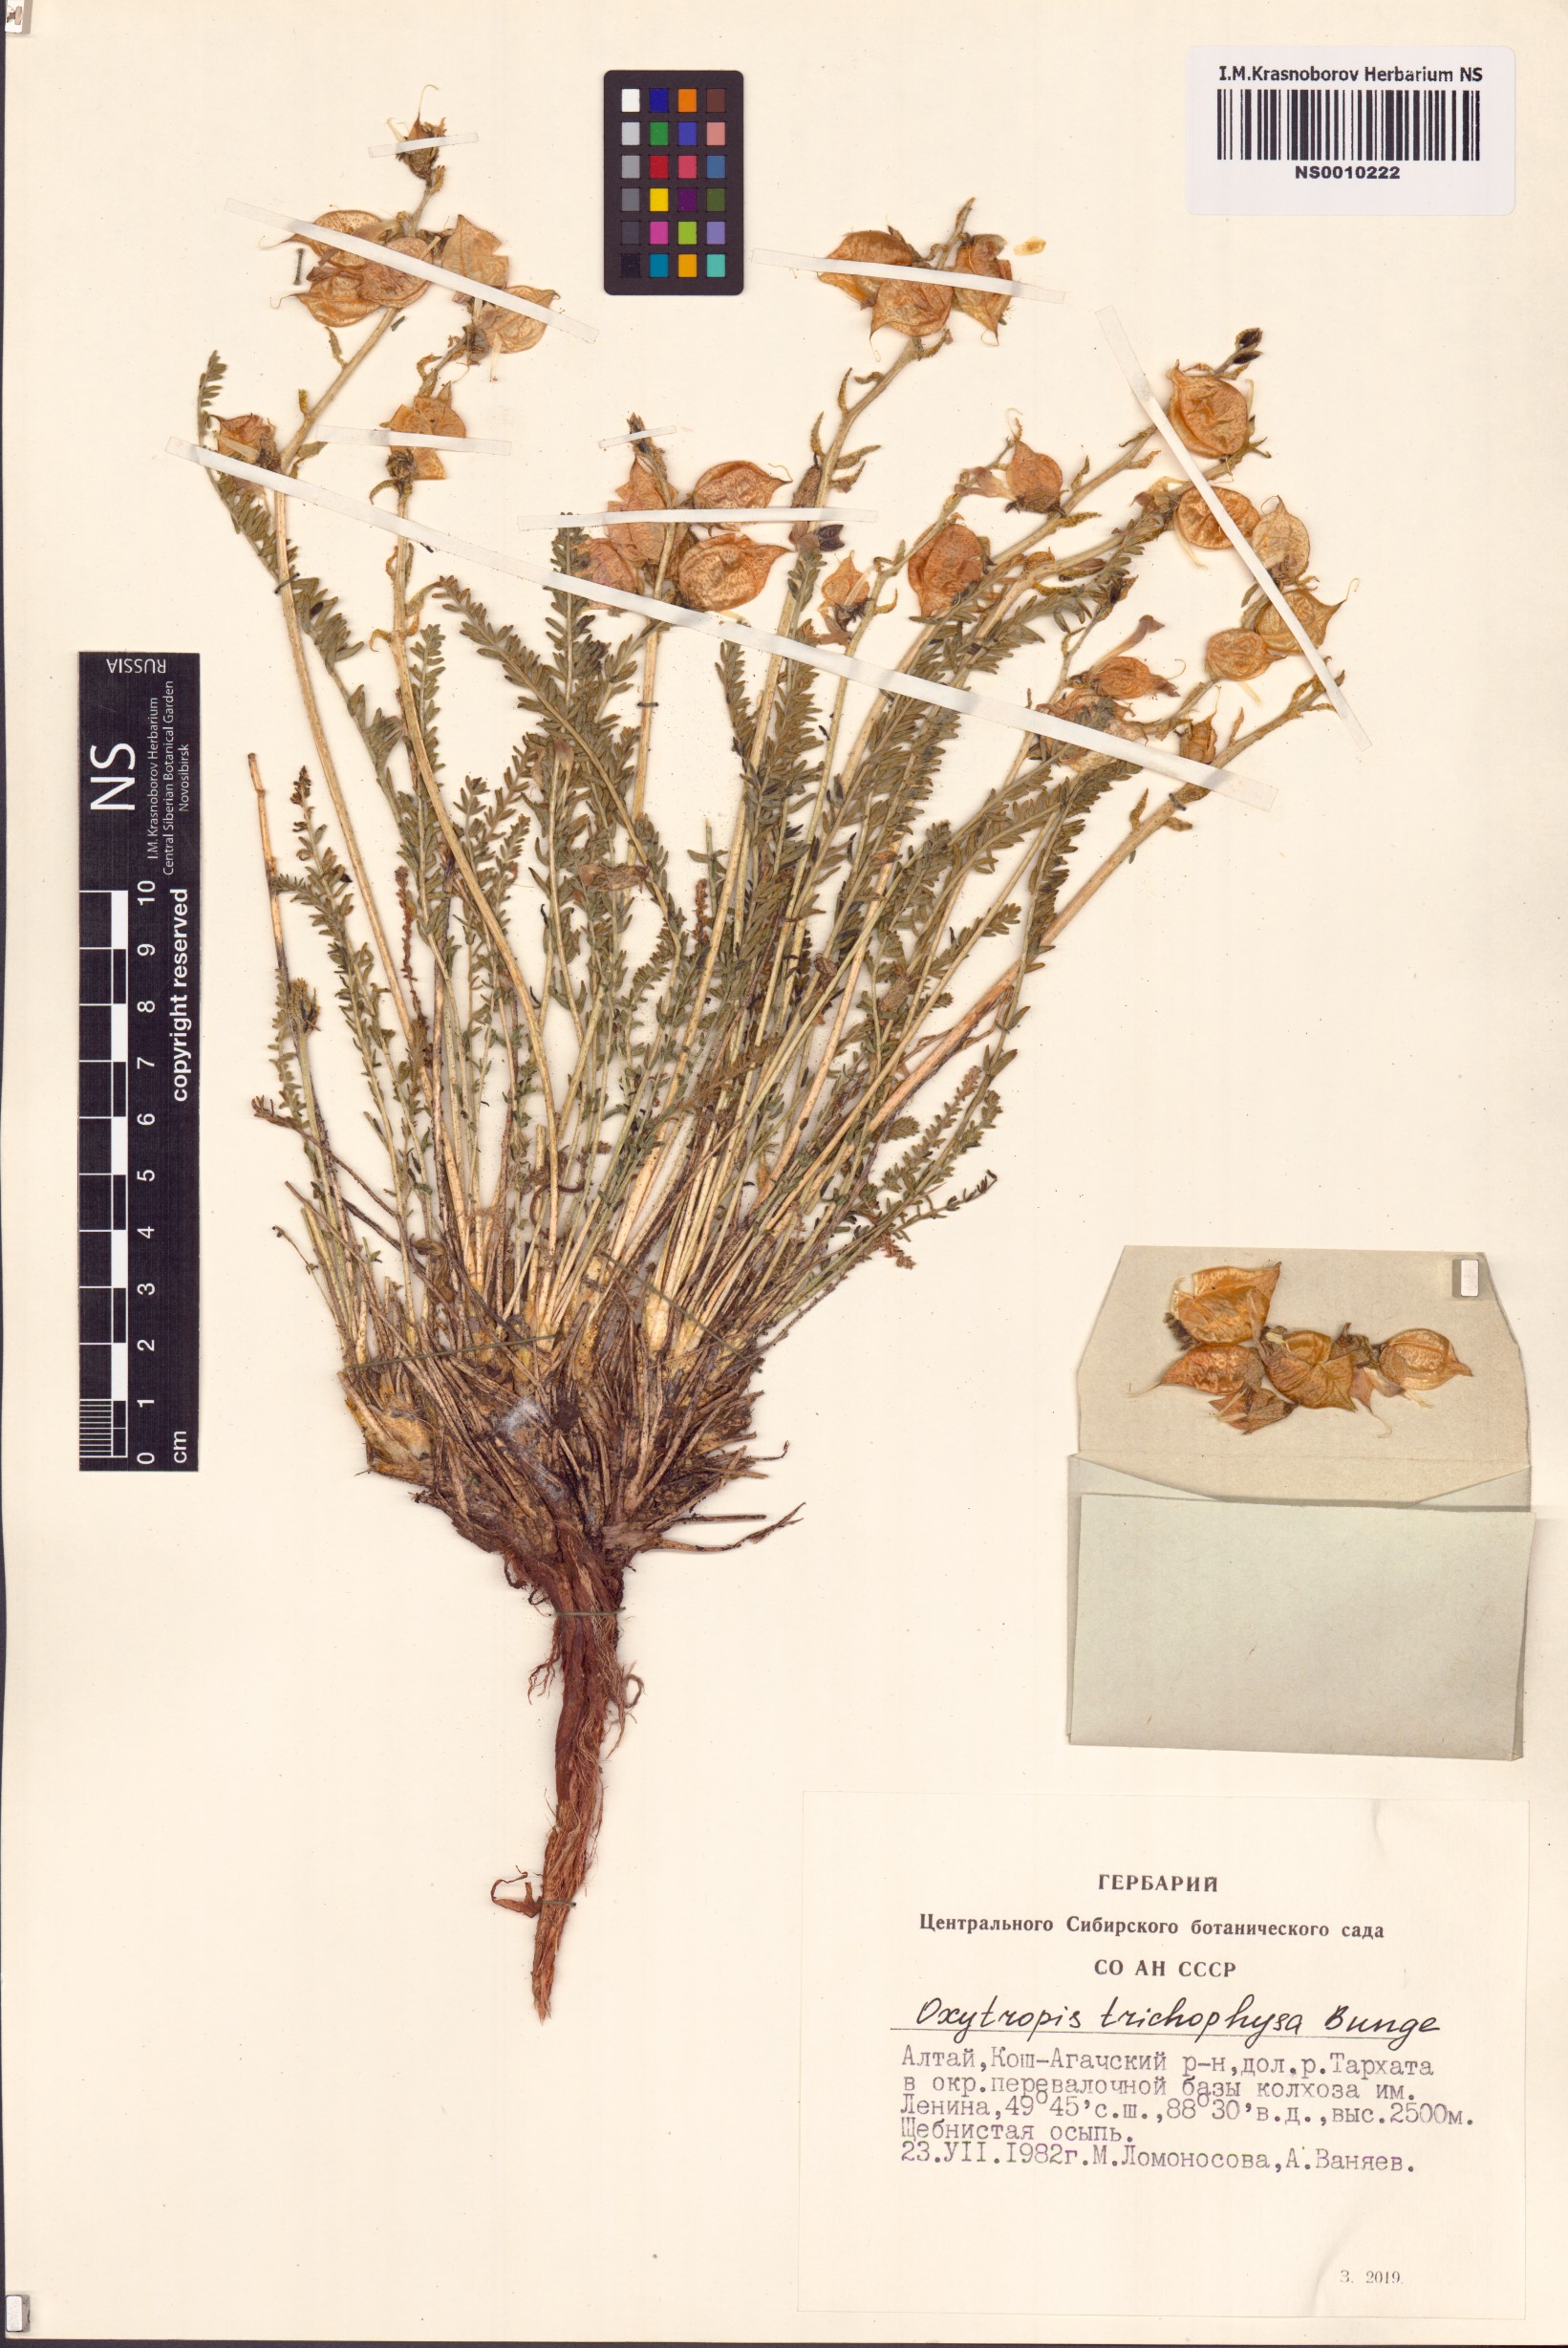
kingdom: Plantae
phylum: Tracheophyta
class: Magnoliopsida
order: Fabales
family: Fabaceae
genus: Oxytropis
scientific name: Oxytropis trichophysa
